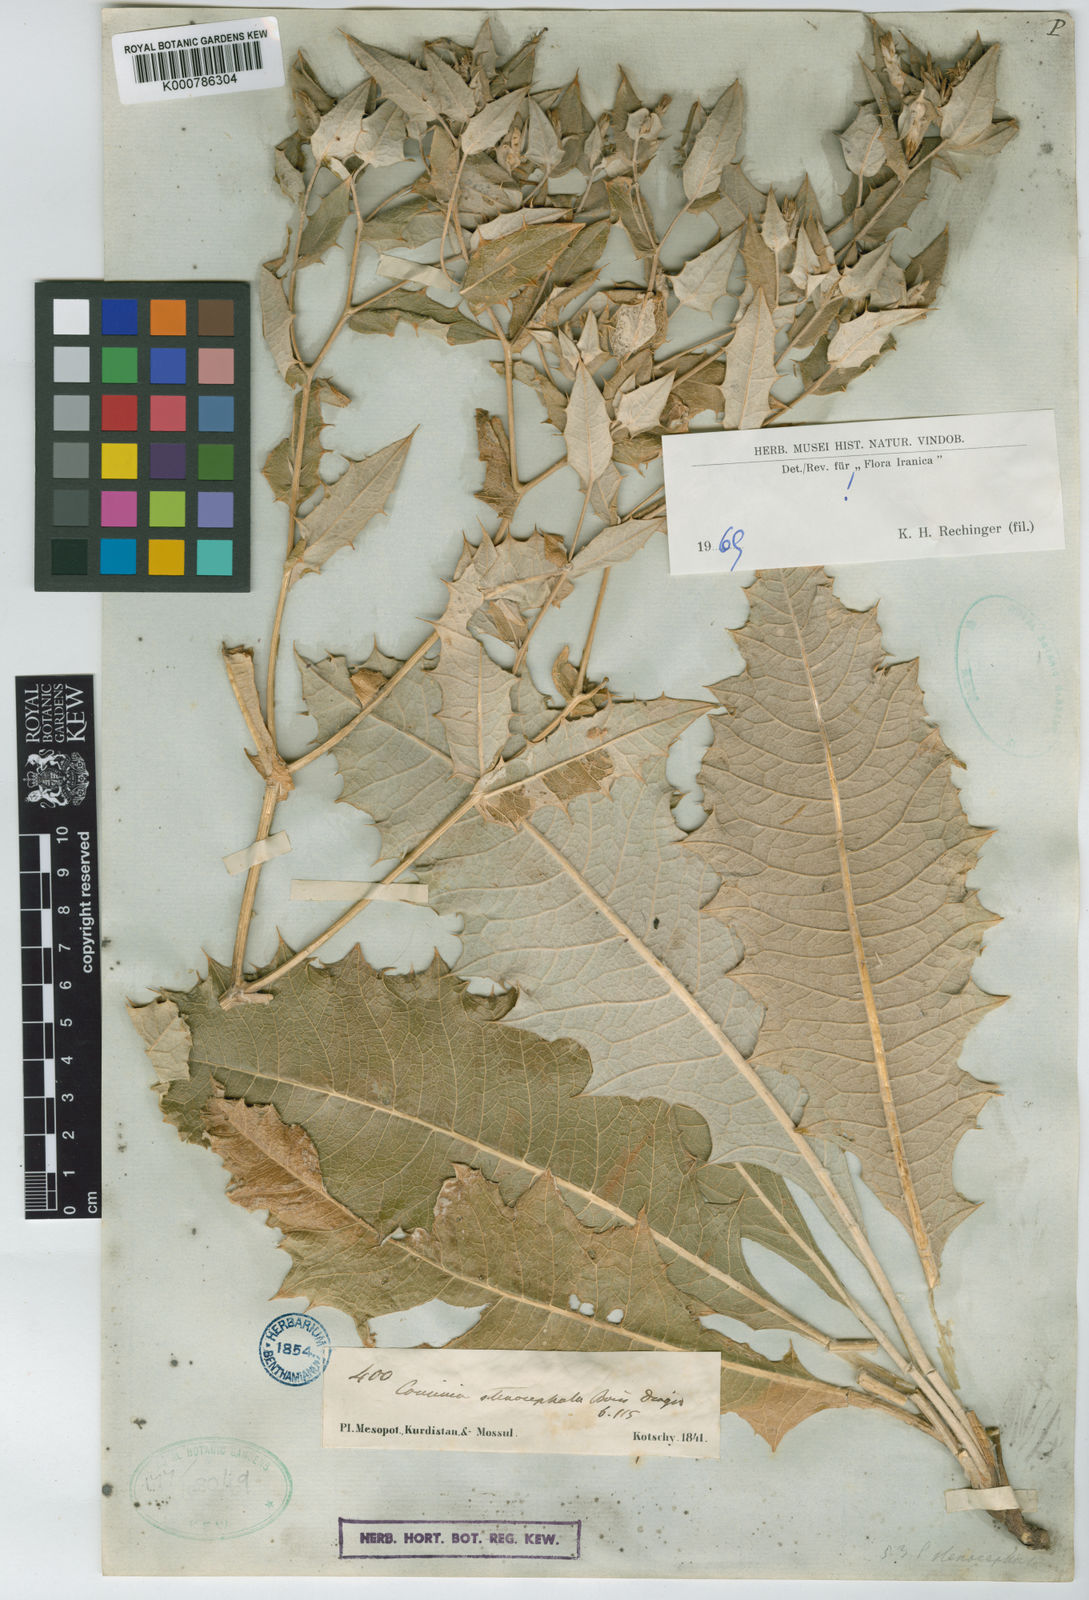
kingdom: Plantae
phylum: Tracheophyta
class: Magnoliopsida
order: Asterales
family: Asteraceae
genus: Cousinia
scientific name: Cousinia stenocephala
